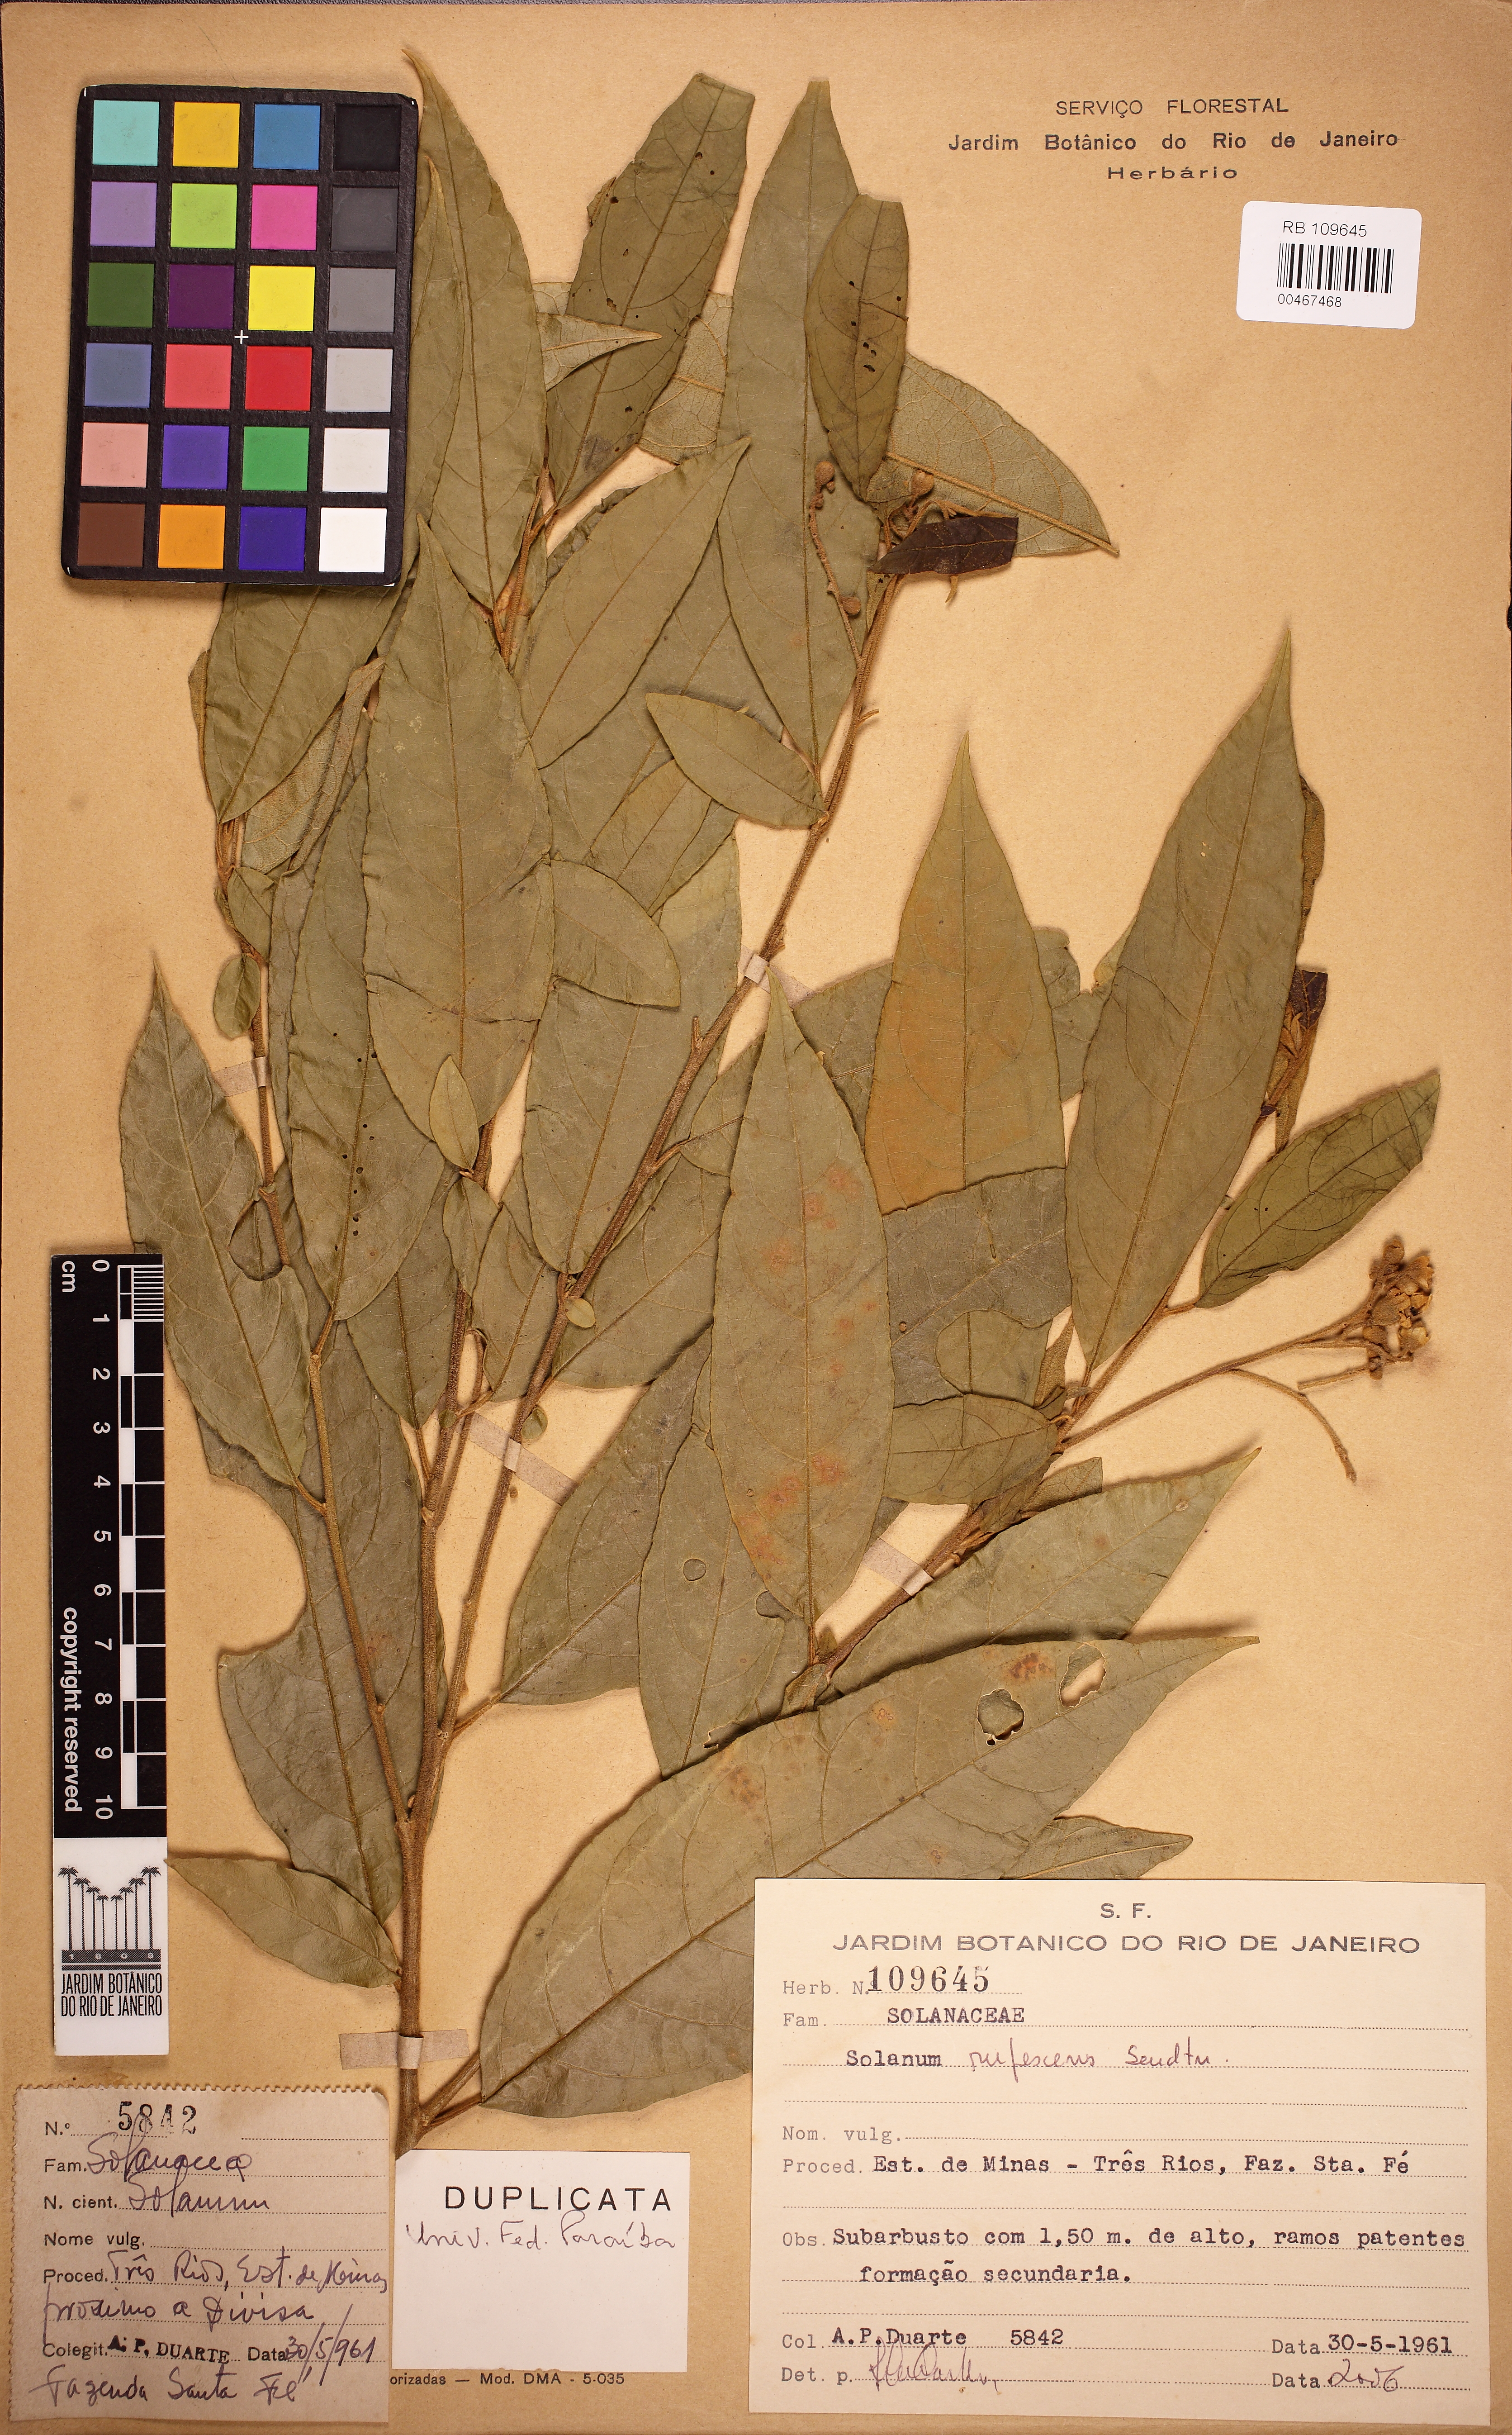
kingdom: Plantae
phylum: Tracheophyta
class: Magnoliopsida
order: Solanales
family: Solanaceae
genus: Solanum
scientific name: Solanum rufescens
